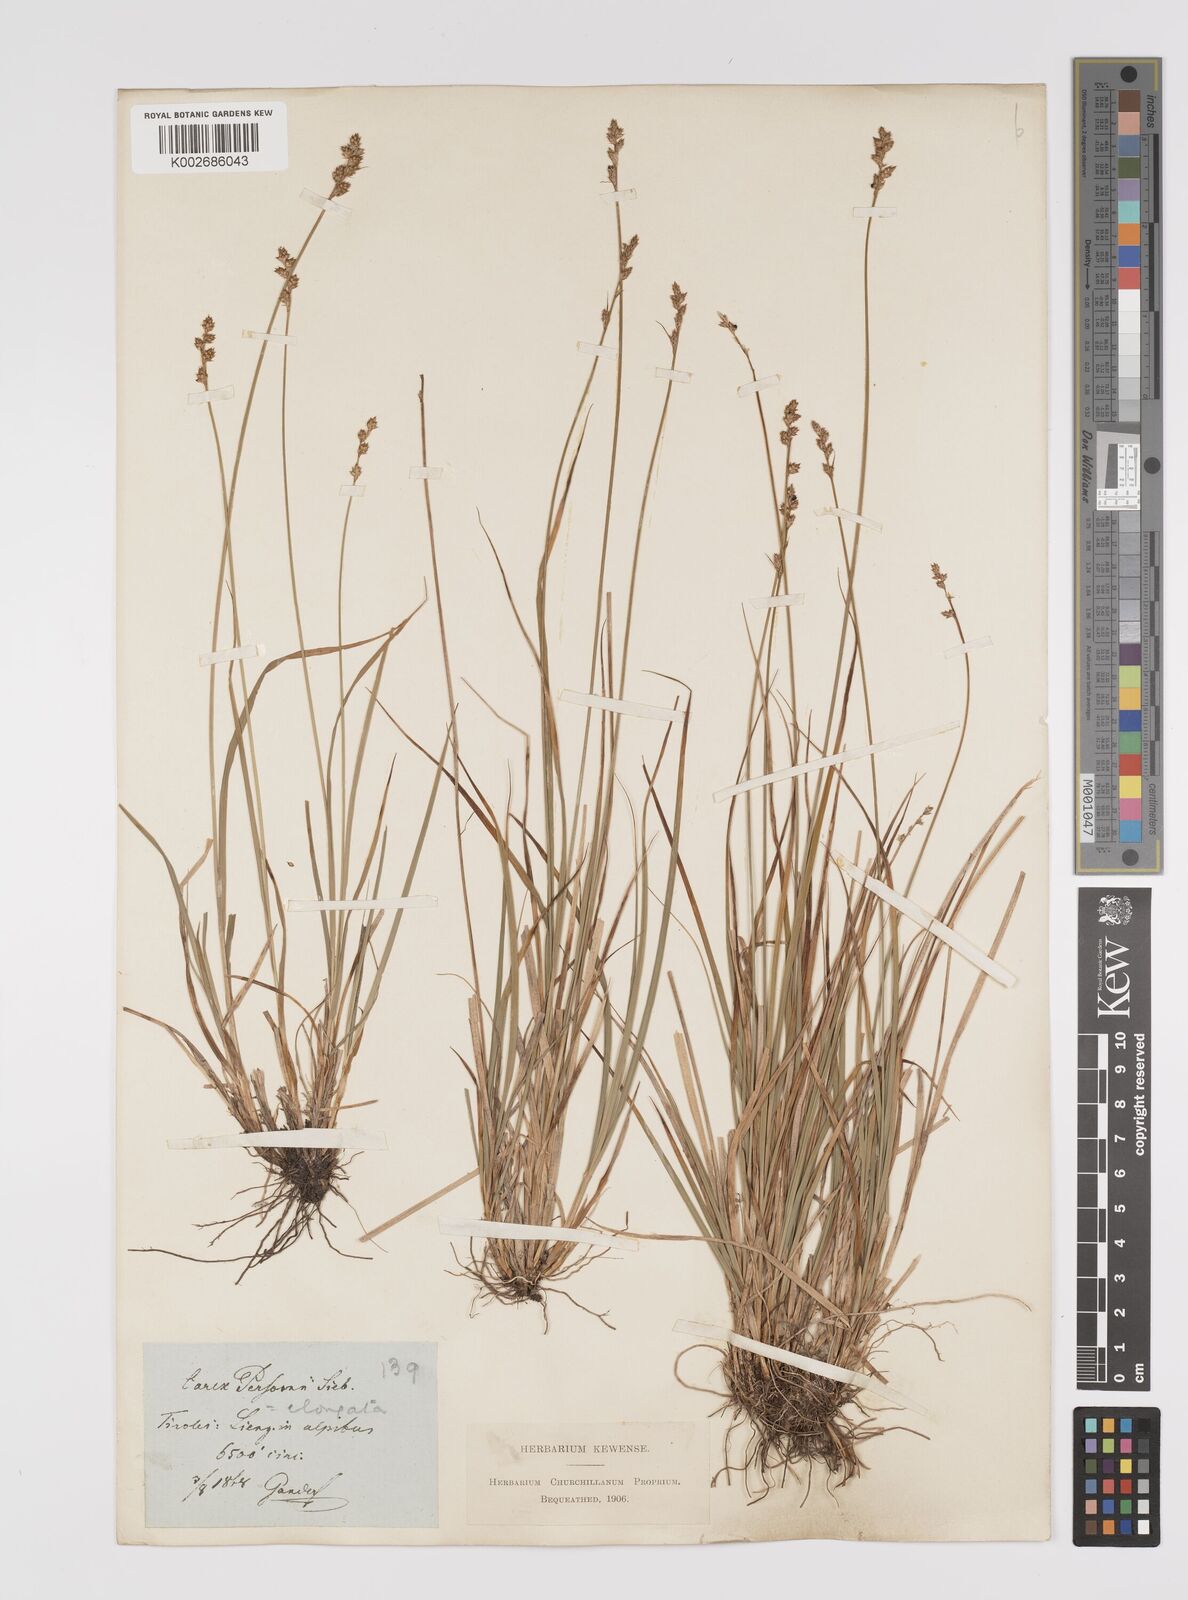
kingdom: Plantae
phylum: Tracheophyta
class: Liliopsida
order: Poales
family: Cyperaceae
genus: Carex
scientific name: Carex elongata
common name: Elongated sedge
